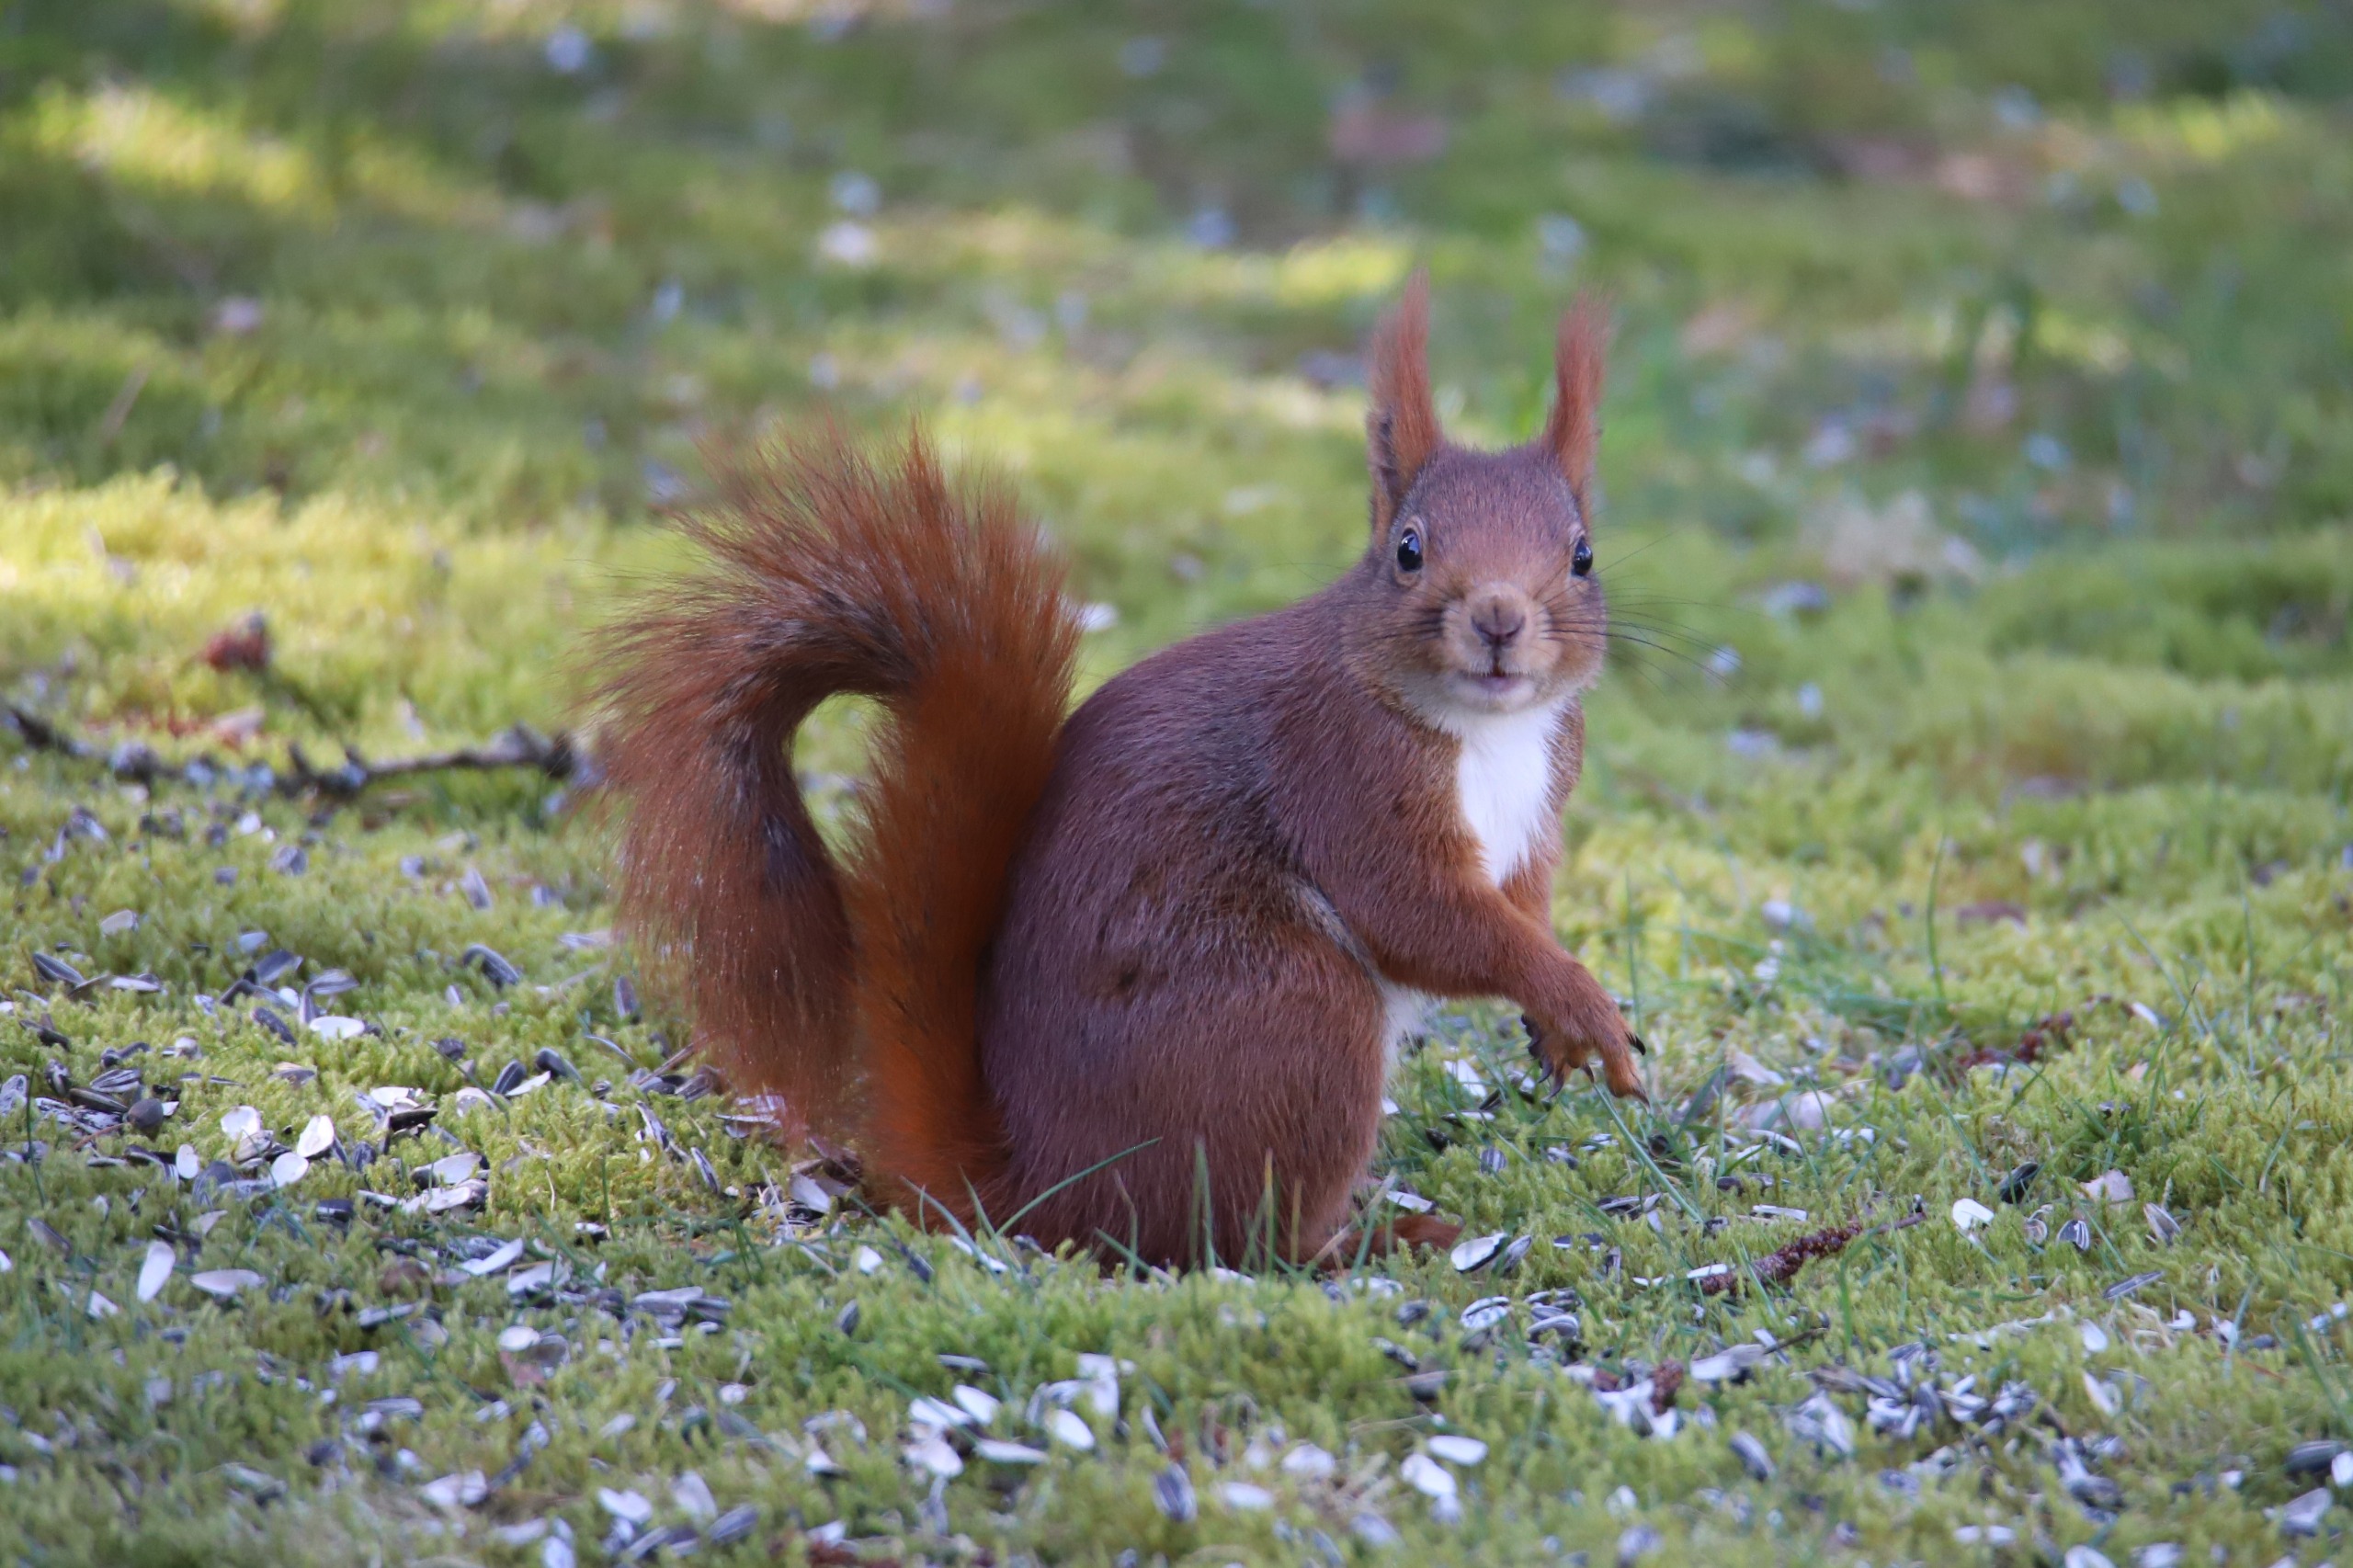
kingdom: Animalia
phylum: Chordata
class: Mammalia
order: Rodentia
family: Sciuridae
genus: Sciurus
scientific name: Sciurus vulgaris
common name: Egern
